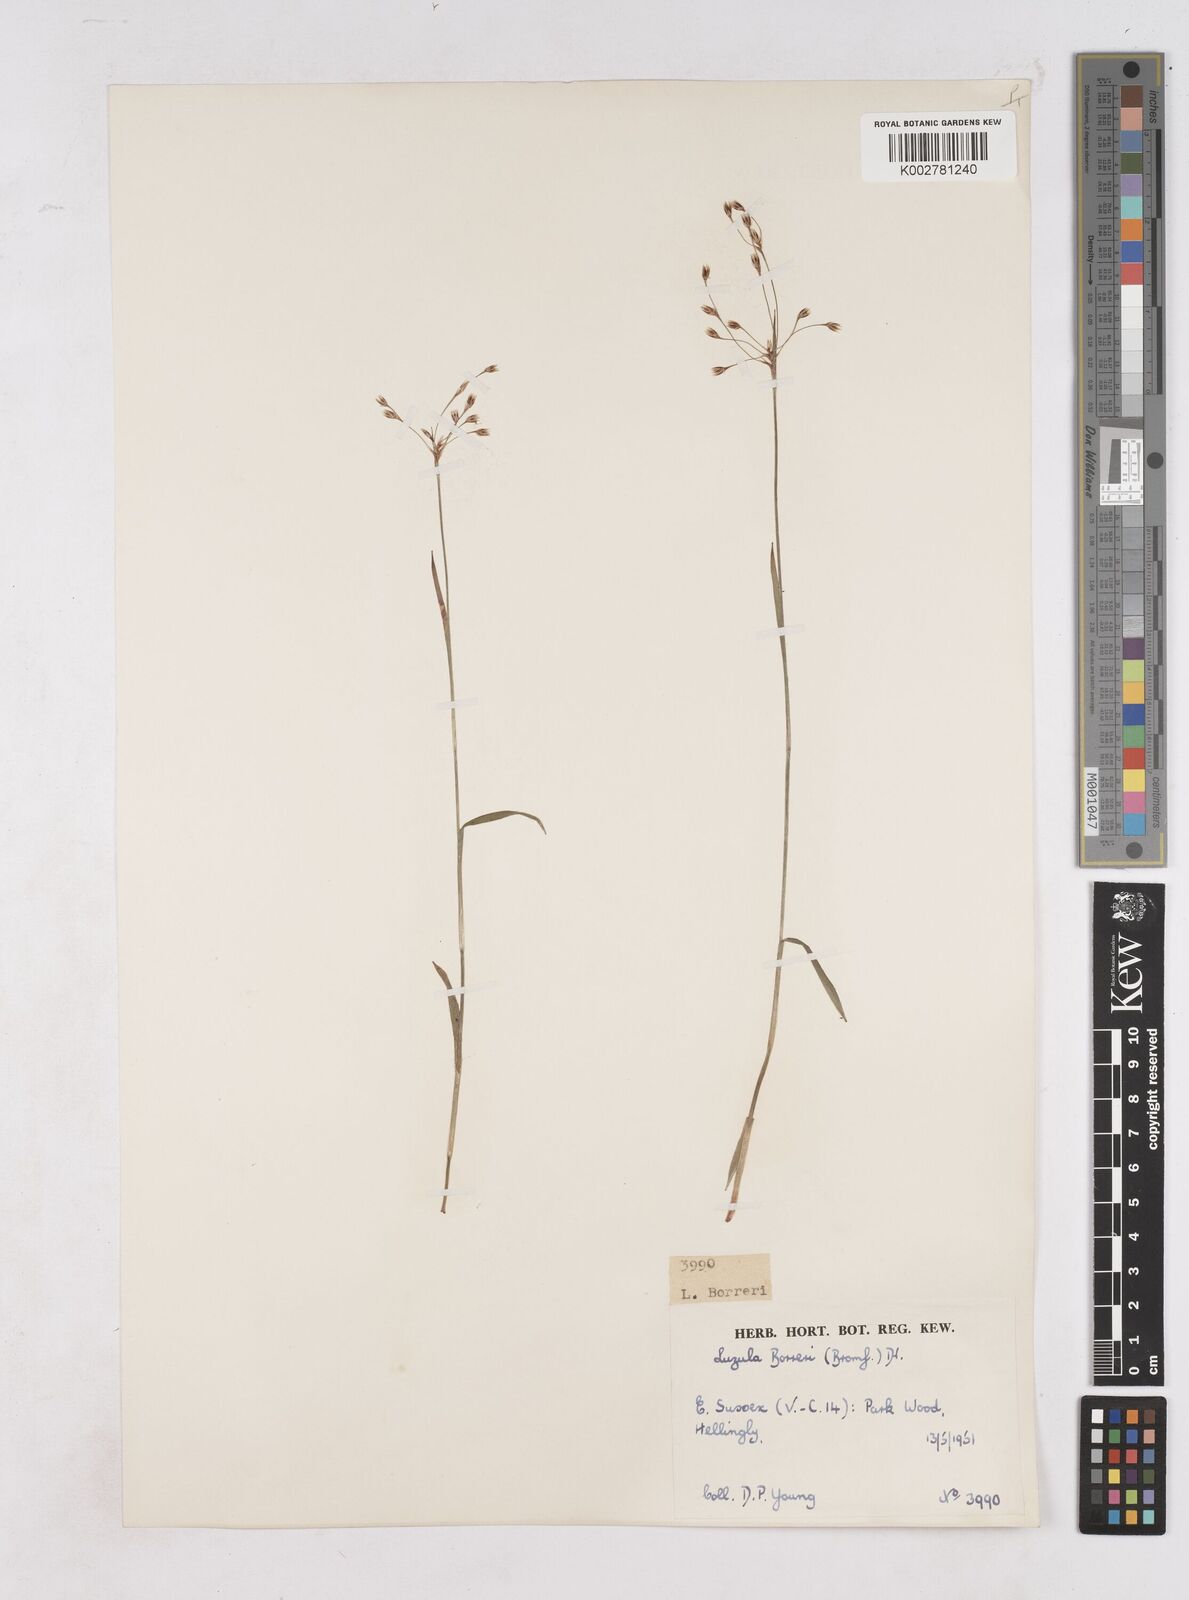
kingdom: Plantae
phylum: Tracheophyta
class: Liliopsida
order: Poales
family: Juncaceae
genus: Luzula
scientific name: Luzula forsteri
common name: Southern wood-rush
